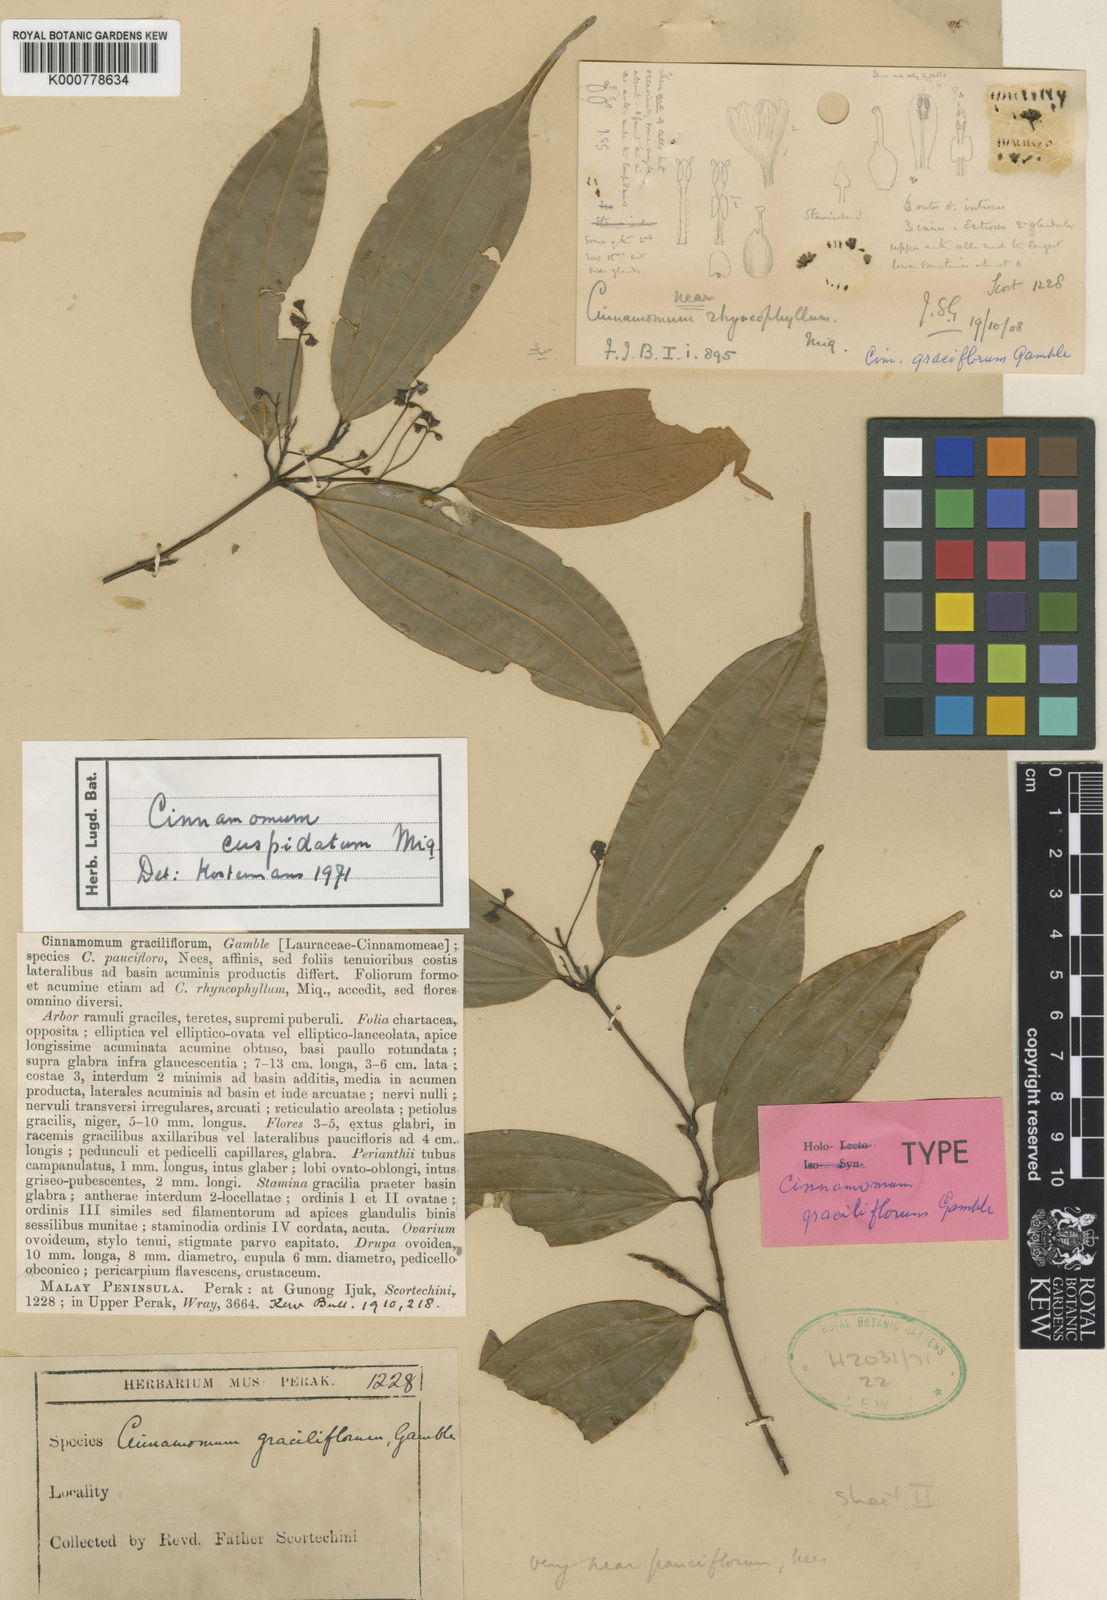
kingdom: Plantae
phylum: Tracheophyta
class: Magnoliopsida
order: Laurales
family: Lauraceae
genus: Cinnamomum
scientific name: Cinnamomum cuspidatum
